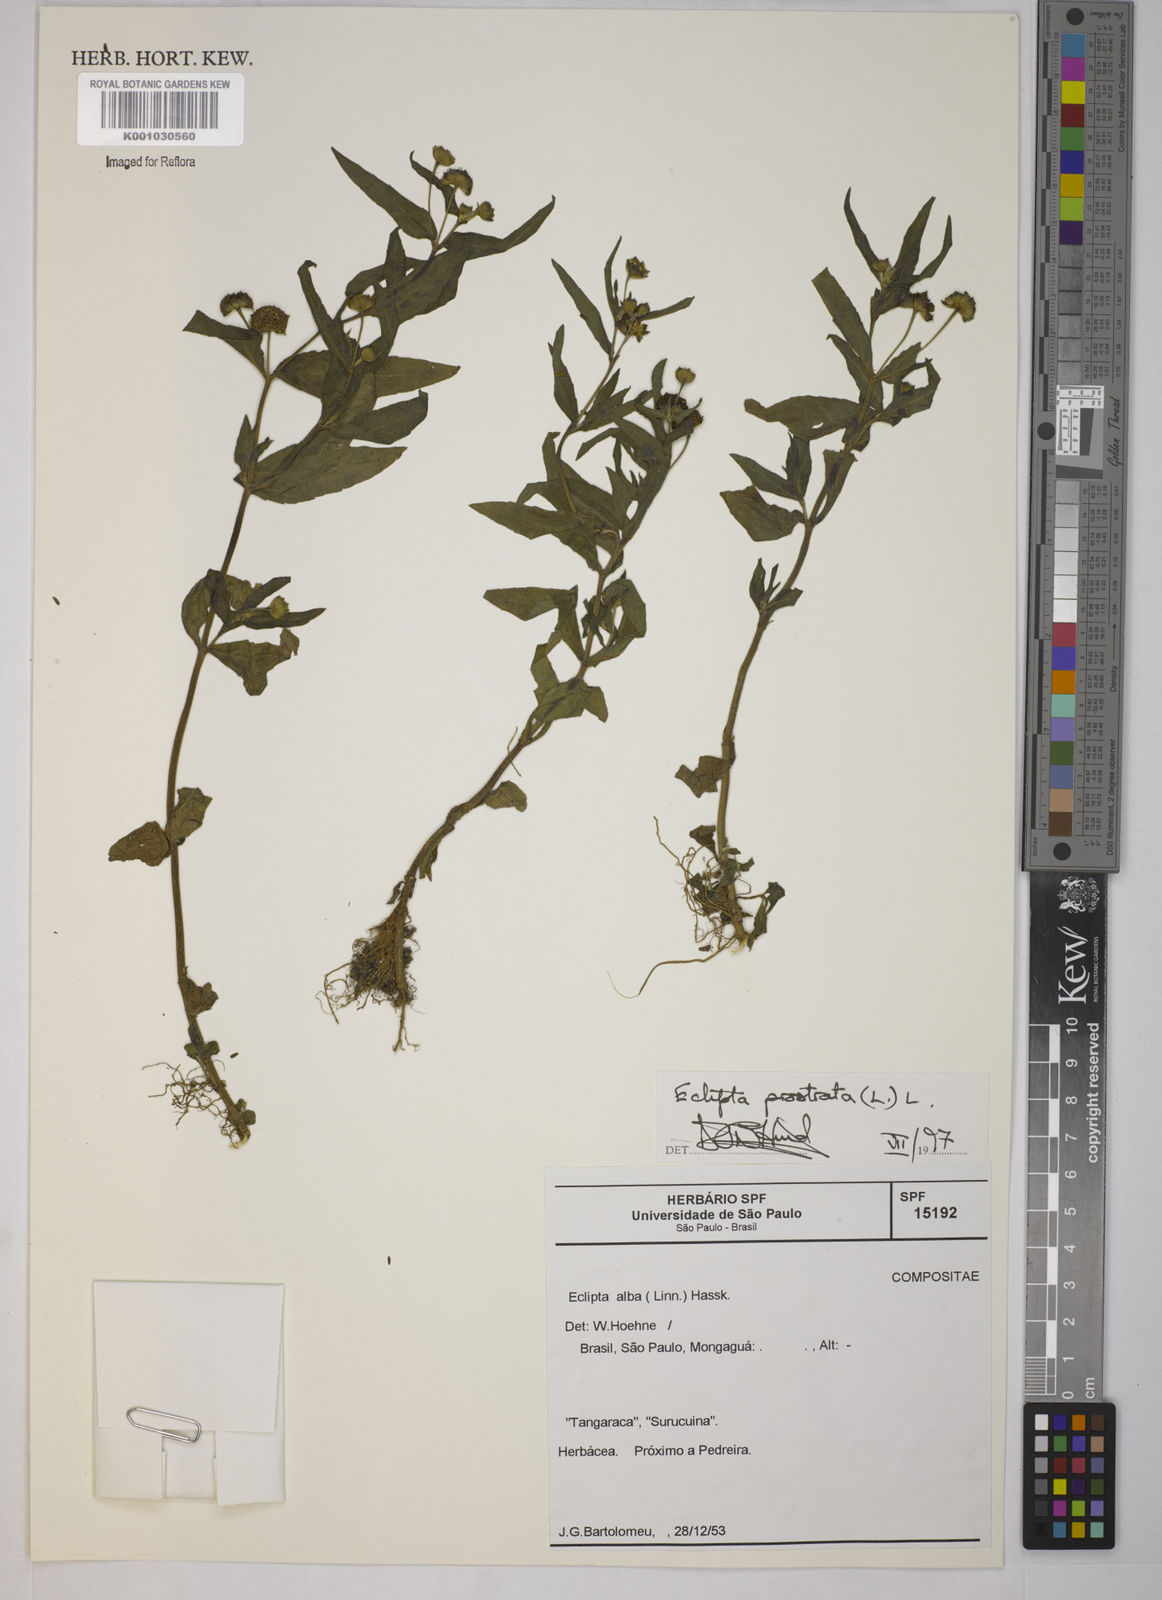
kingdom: Plantae
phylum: Tracheophyta
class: Magnoliopsida
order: Asterales
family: Asteraceae
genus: Eclipta
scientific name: Eclipta prostrata
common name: False daisy
